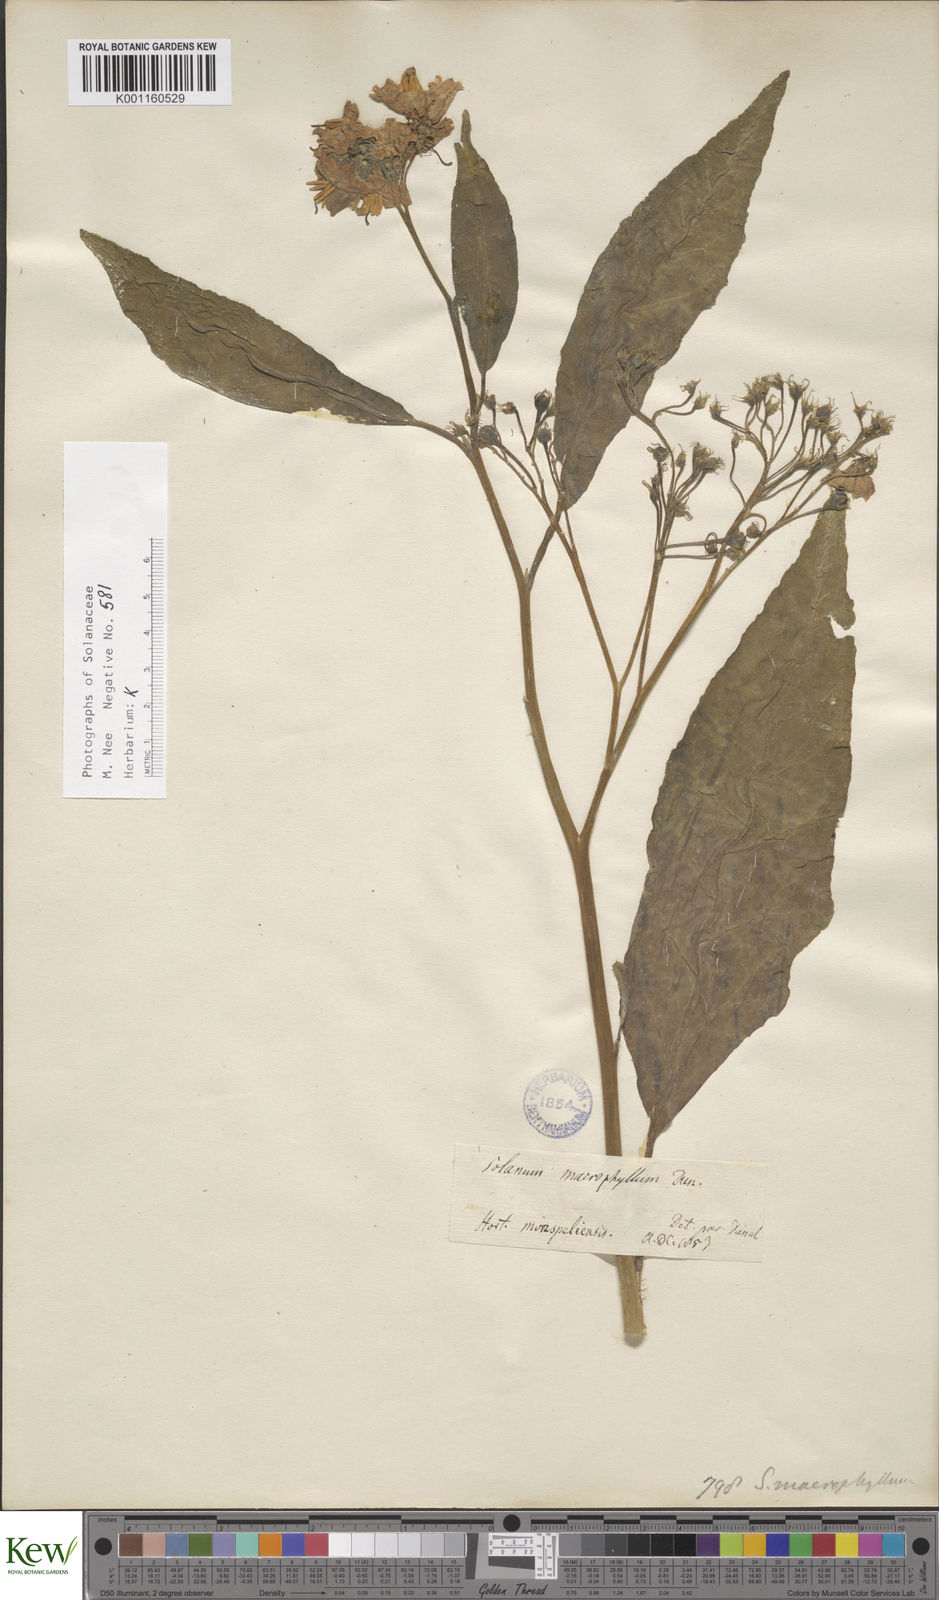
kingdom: Plantae
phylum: Tracheophyta
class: Magnoliopsida
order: Solanales
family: Solanaceae
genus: Solanum
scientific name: Solanum albidum
